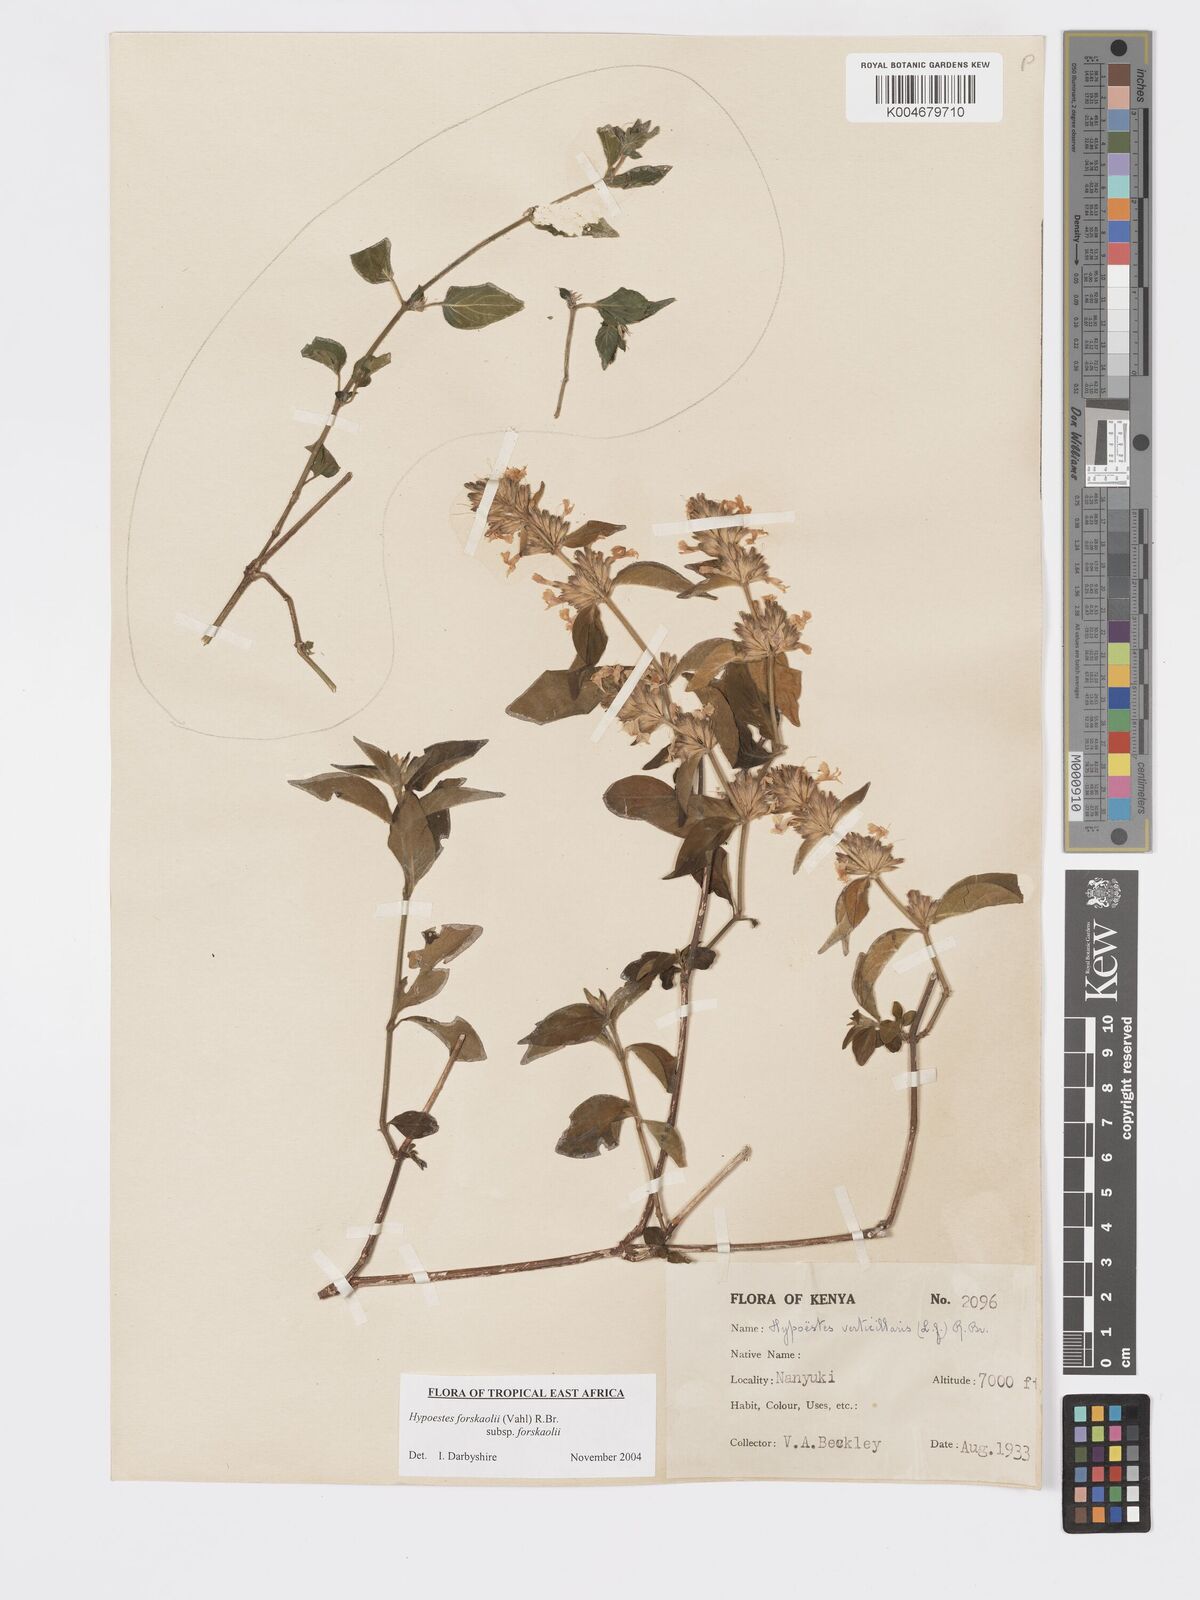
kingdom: Plantae
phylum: Tracheophyta
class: Magnoliopsida
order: Lamiales
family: Acanthaceae
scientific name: Acanthaceae
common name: Acanthaceae
